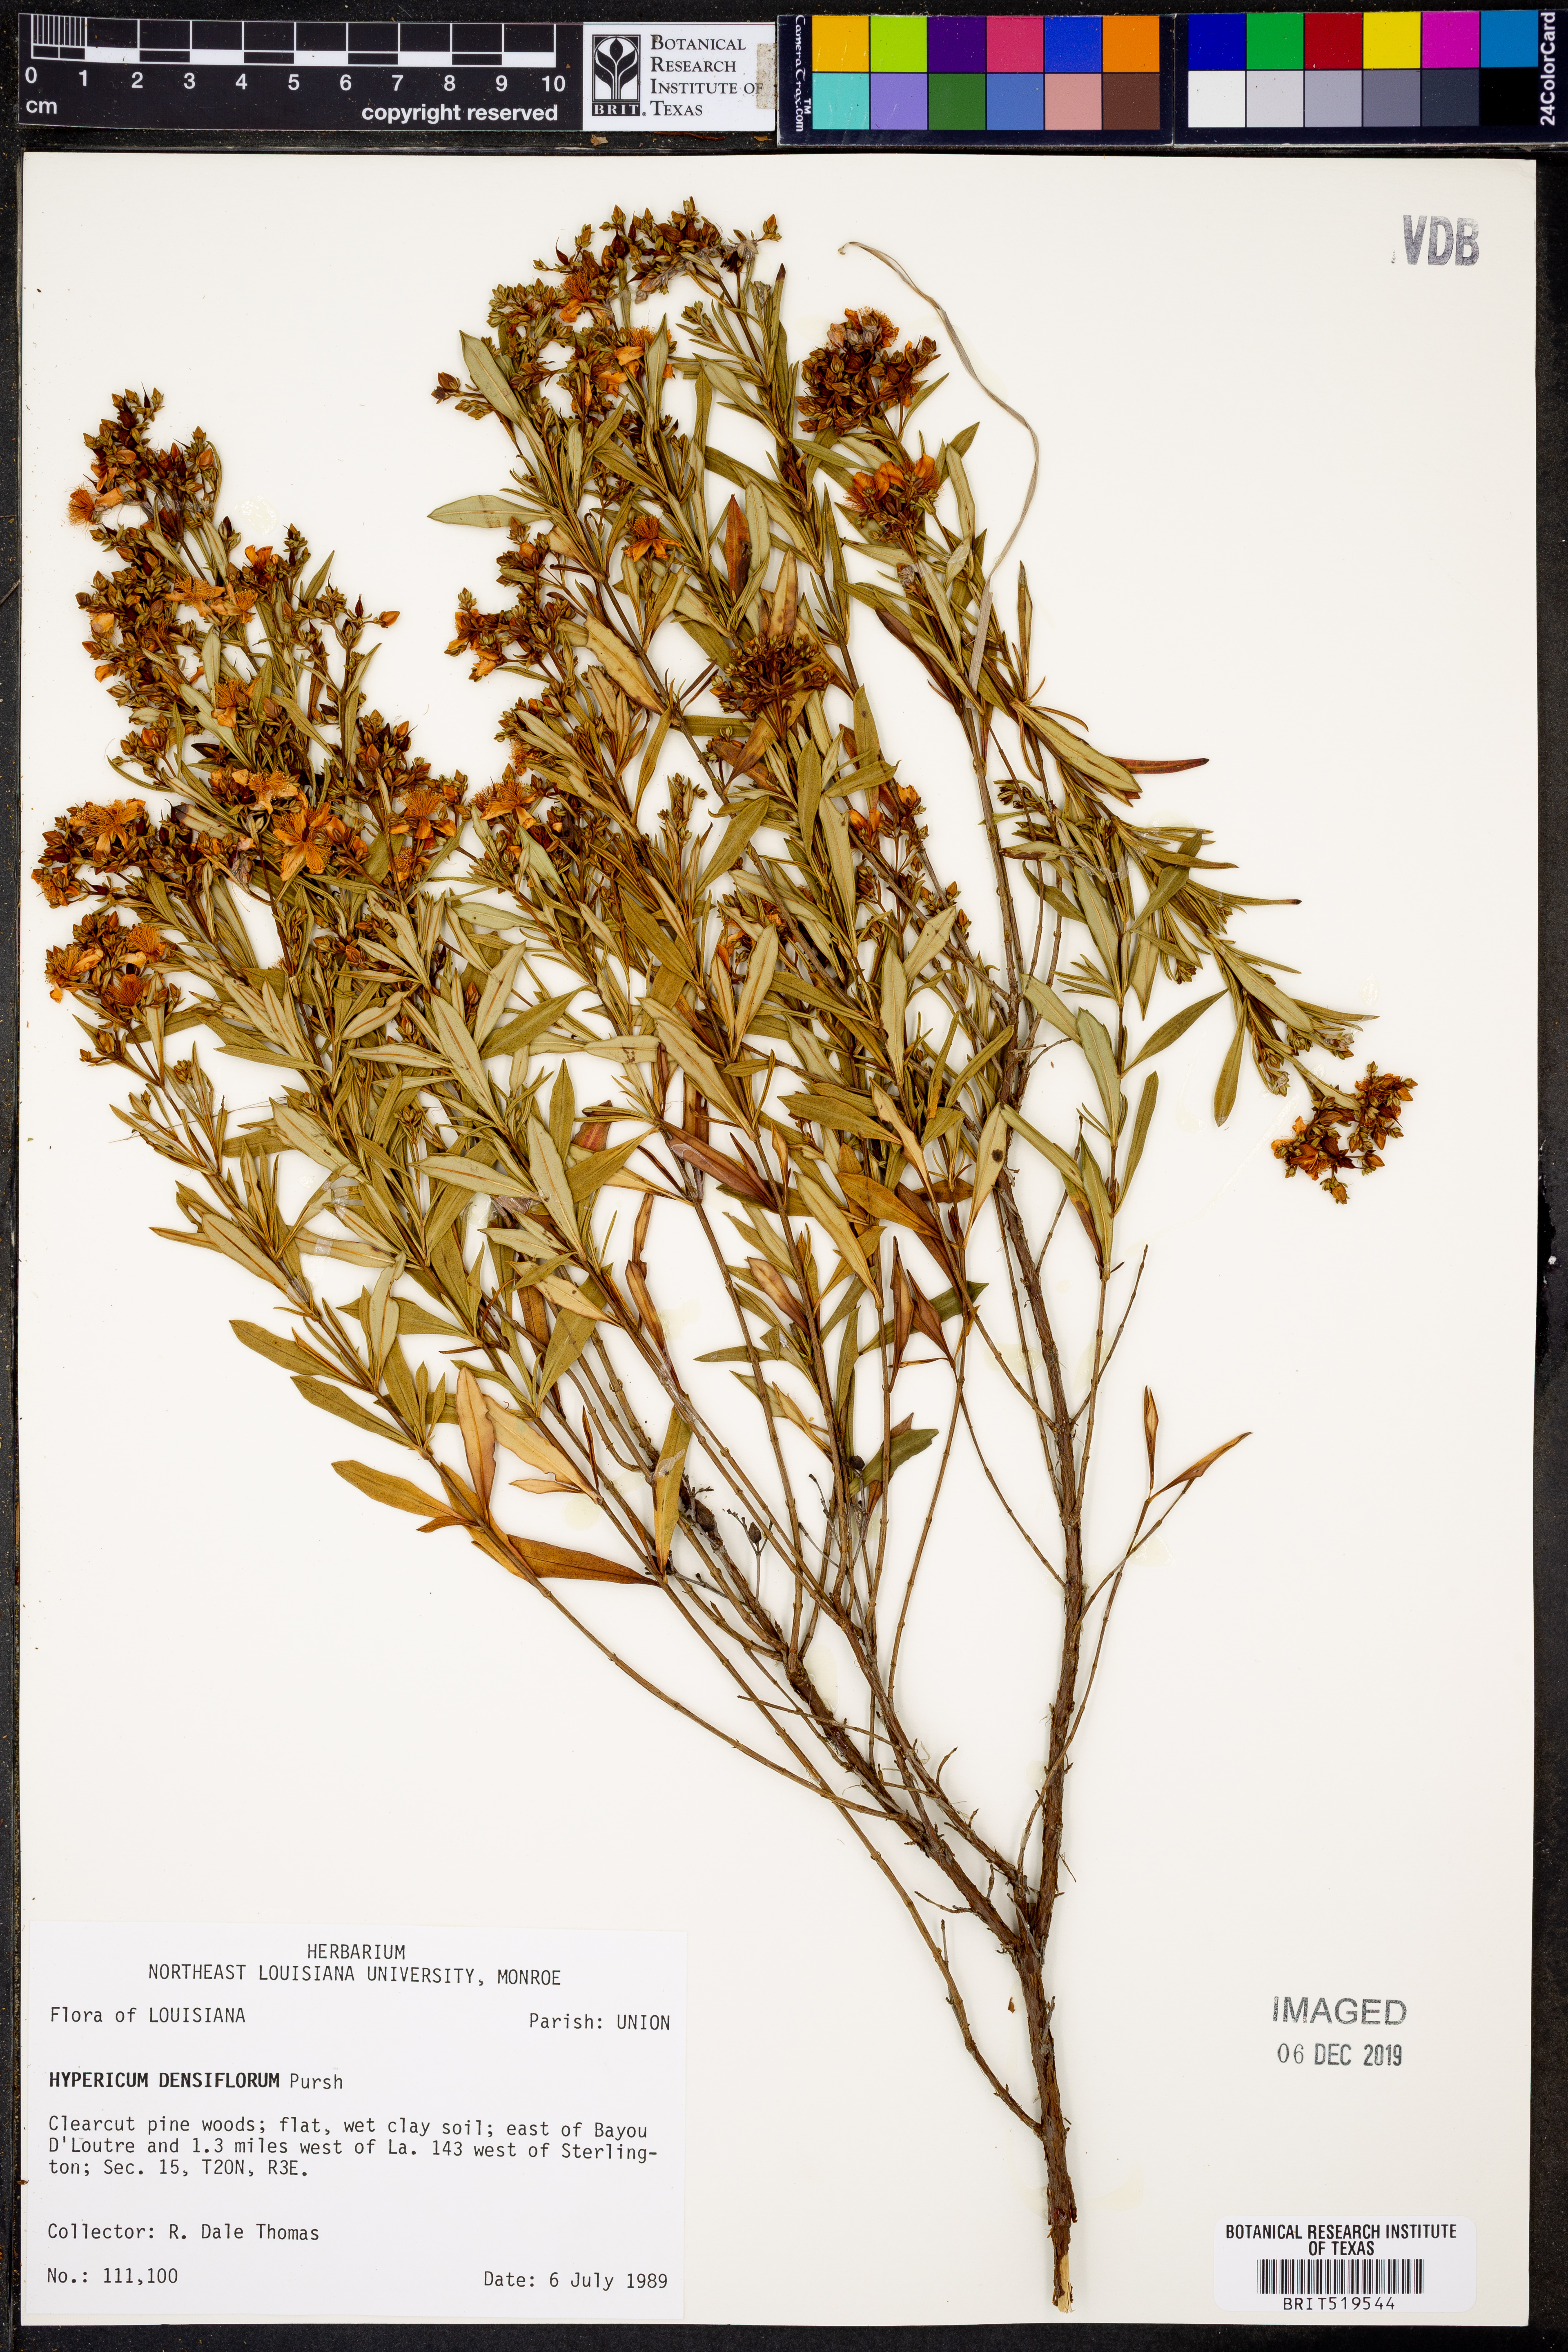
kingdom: Plantae
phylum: Tracheophyta
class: Magnoliopsida
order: Malpighiales
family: Hypericaceae
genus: Hypericum
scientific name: Hypericum densiflorum
